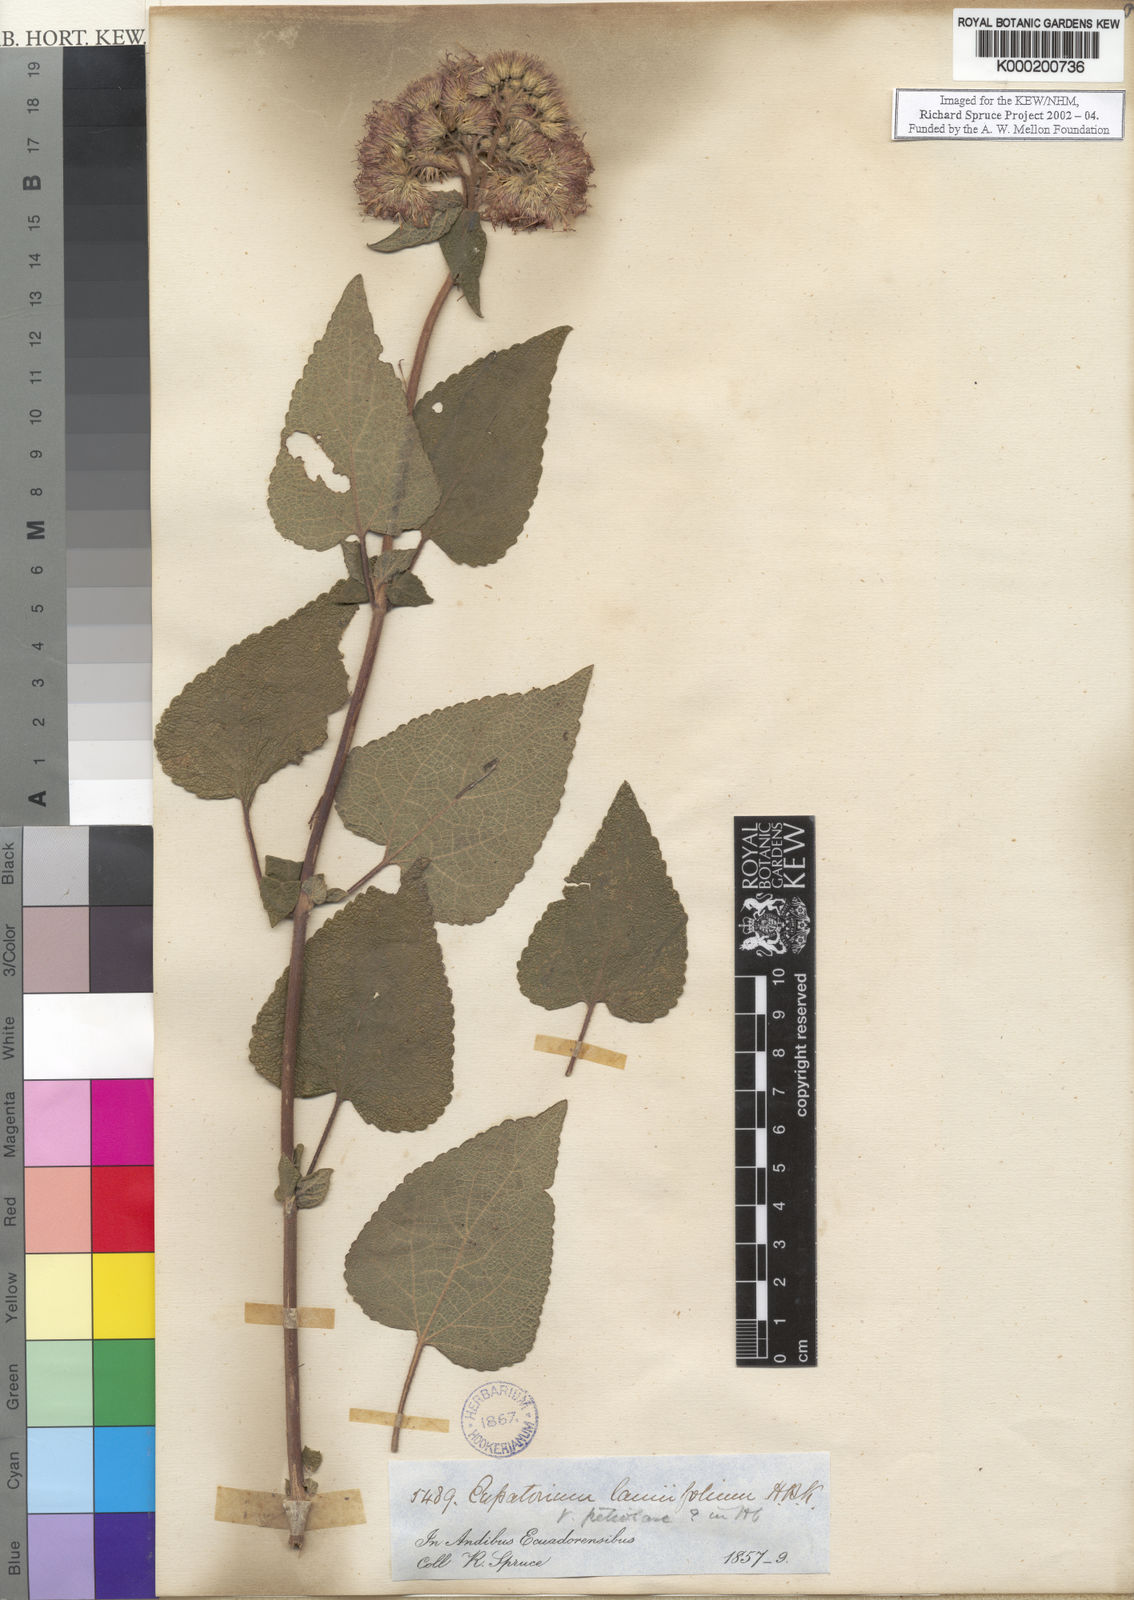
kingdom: Plantae
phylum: Tracheophyta
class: Magnoliopsida
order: Asterales
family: Asteraceae
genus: Aristeguietia
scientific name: Aristeguietia lamiifolia
